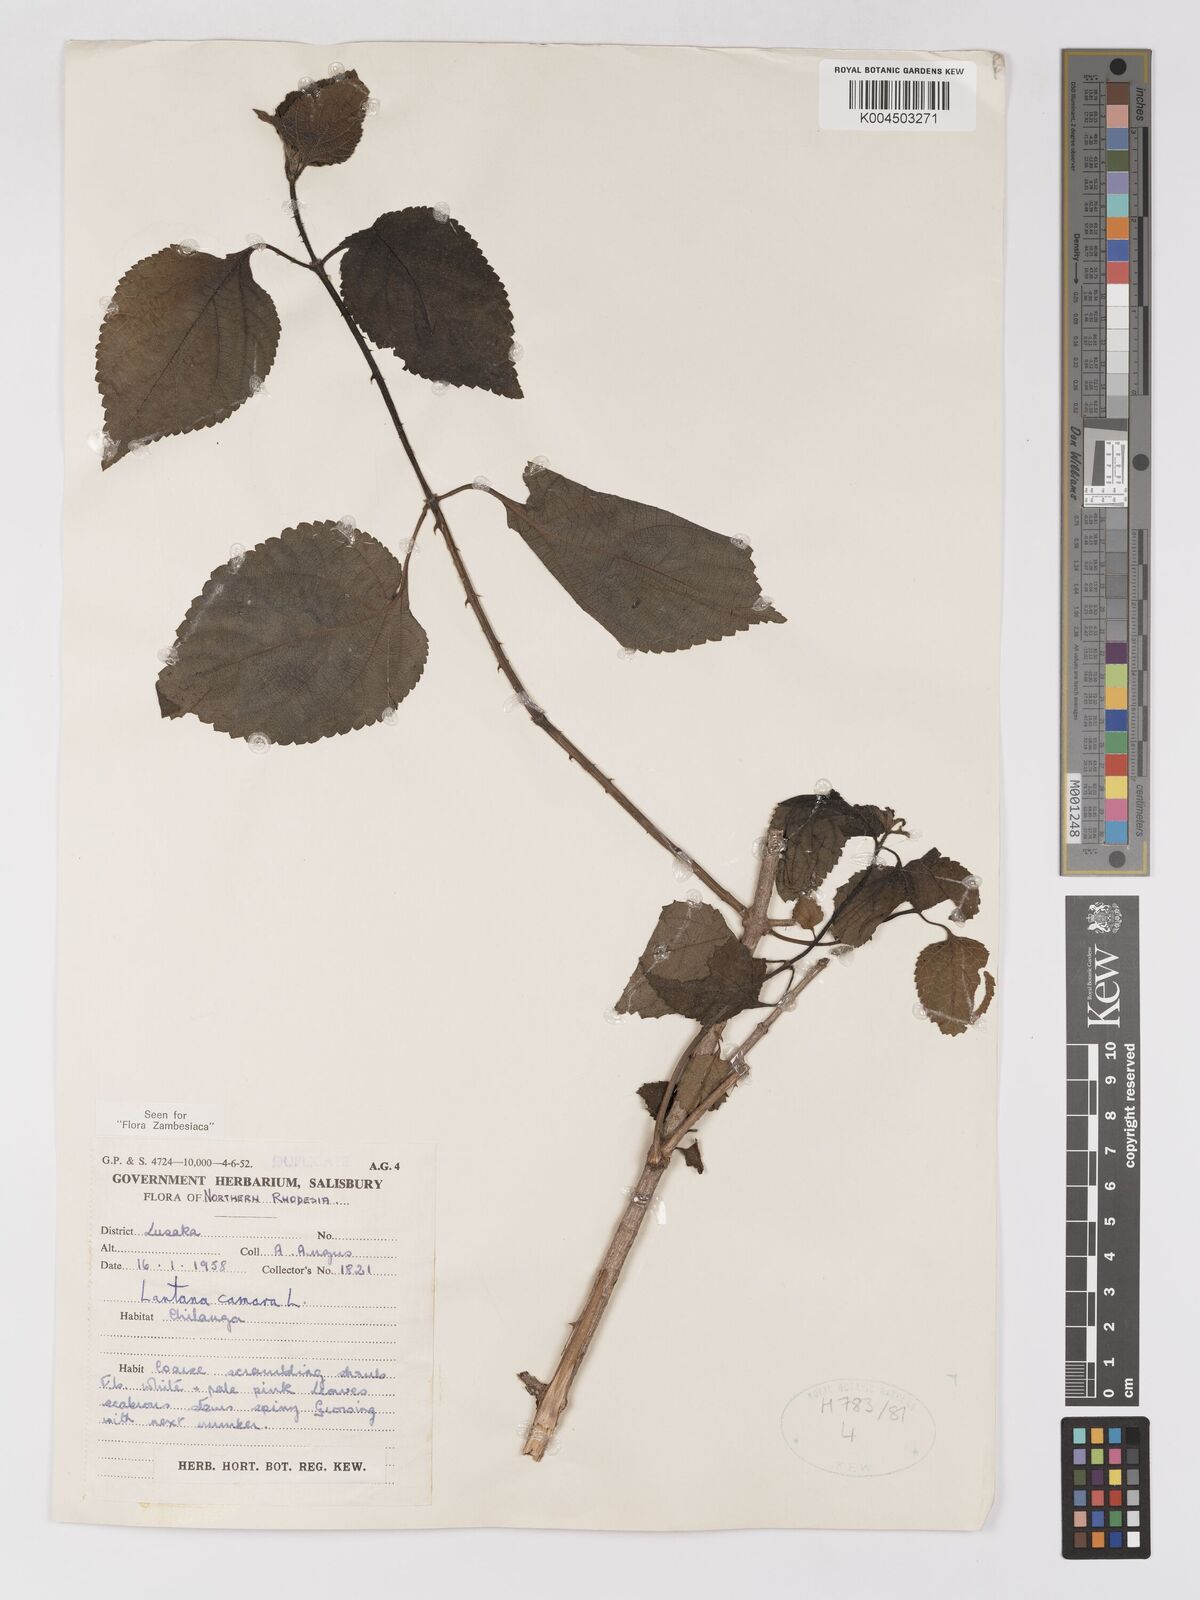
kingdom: Plantae
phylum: Tracheophyta
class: Magnoliopsida
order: Lamiales
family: Verbenaceae
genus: Lantana
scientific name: Lantana camara
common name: Lantana
